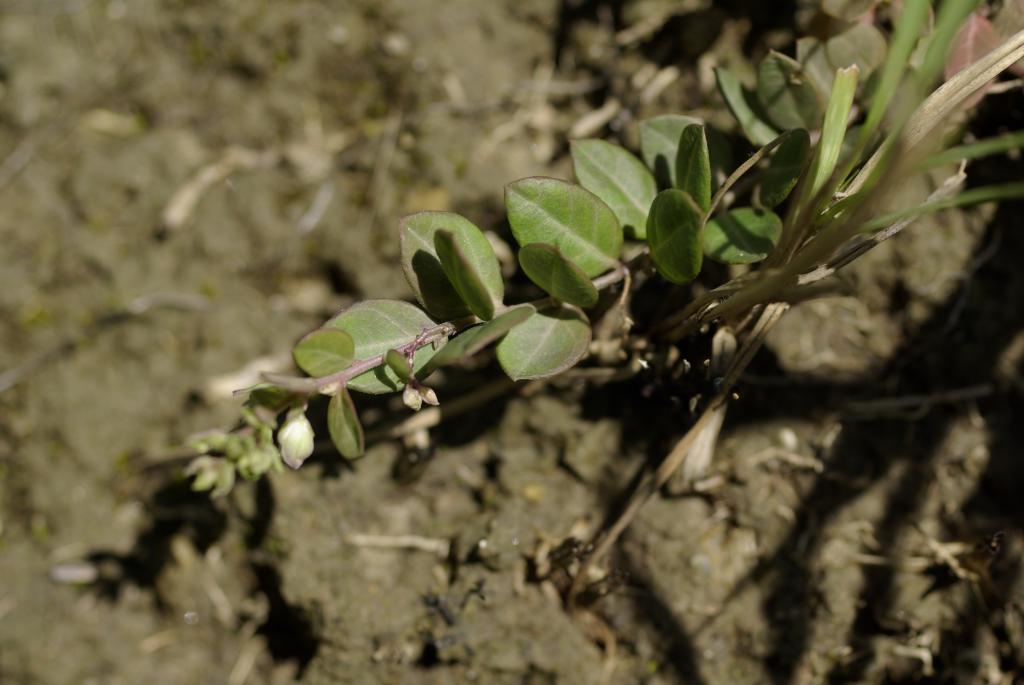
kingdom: Plantae
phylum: Tracheophyta
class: Magnoliopsida
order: Fabales
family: Polygalaceae
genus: Polygala
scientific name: Polygala japonica
